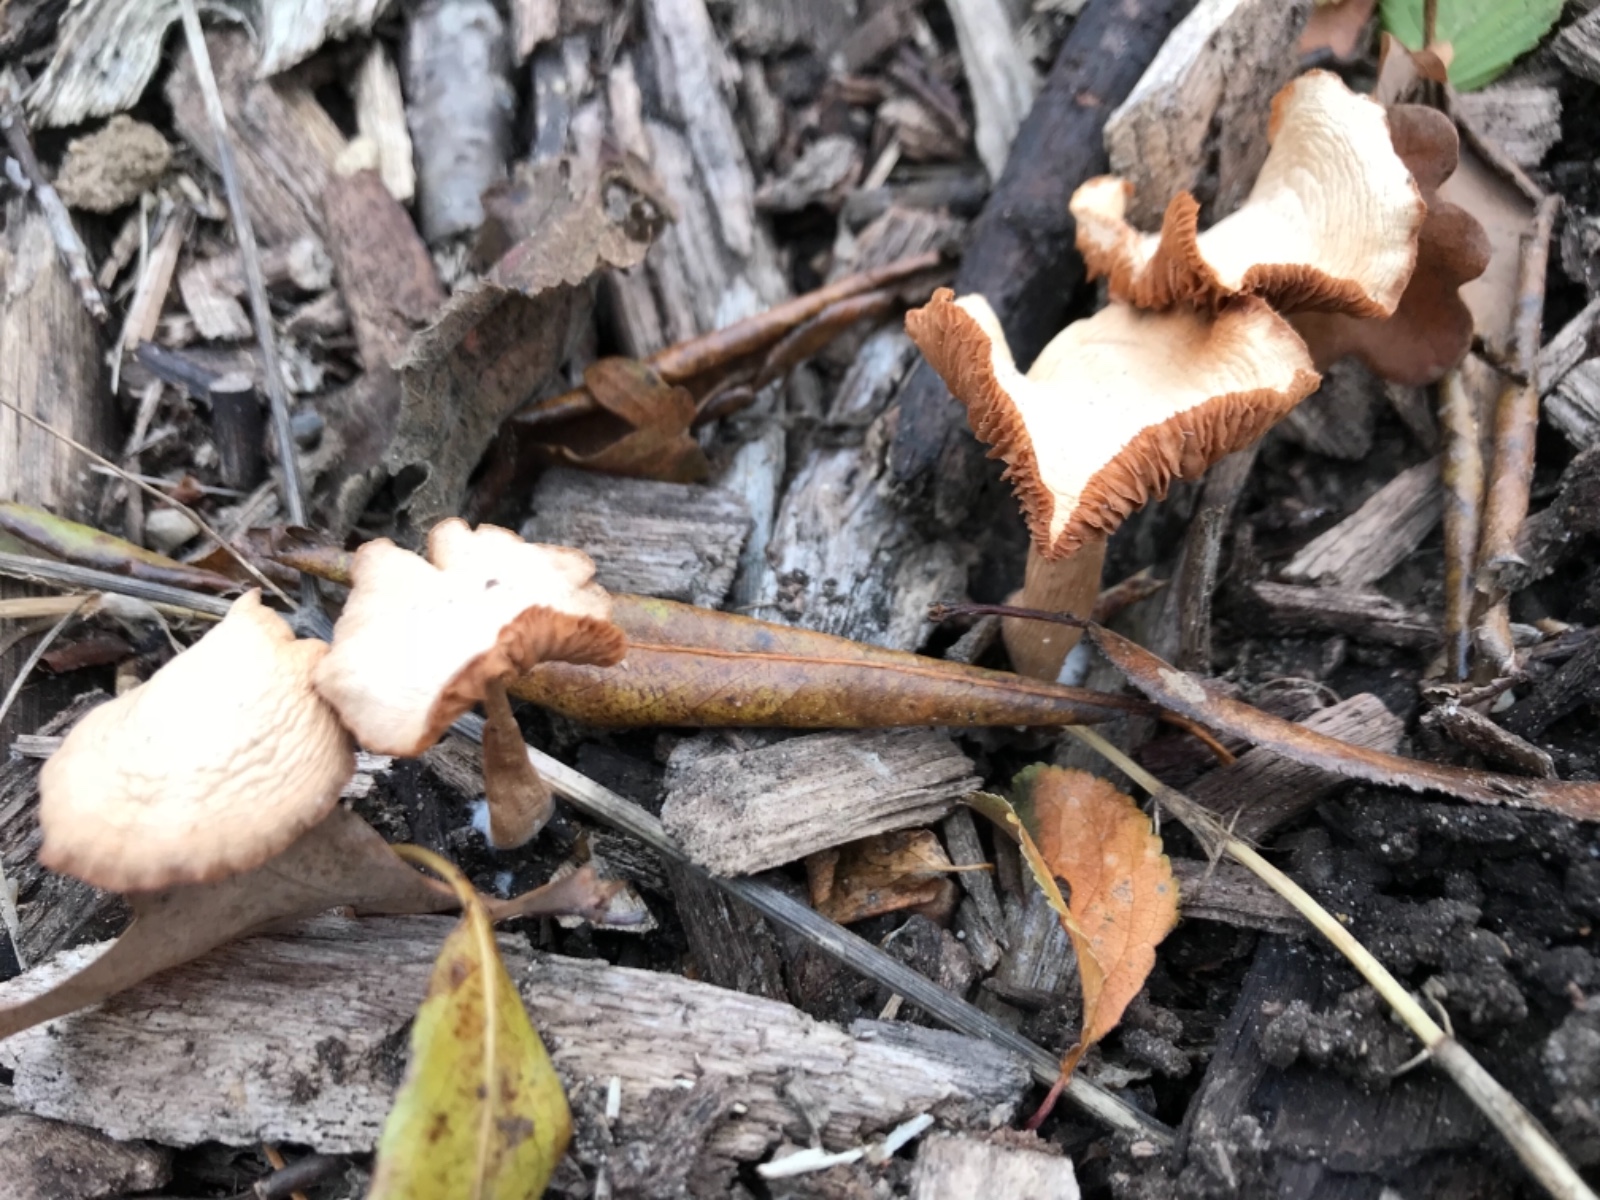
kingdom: Fungi
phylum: Basidiomycota
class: Agaricomycetes
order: Agaricales
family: Tubariaceae
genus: Tubaria
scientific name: Tubaria furfuracea
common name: kliddet fnughat
